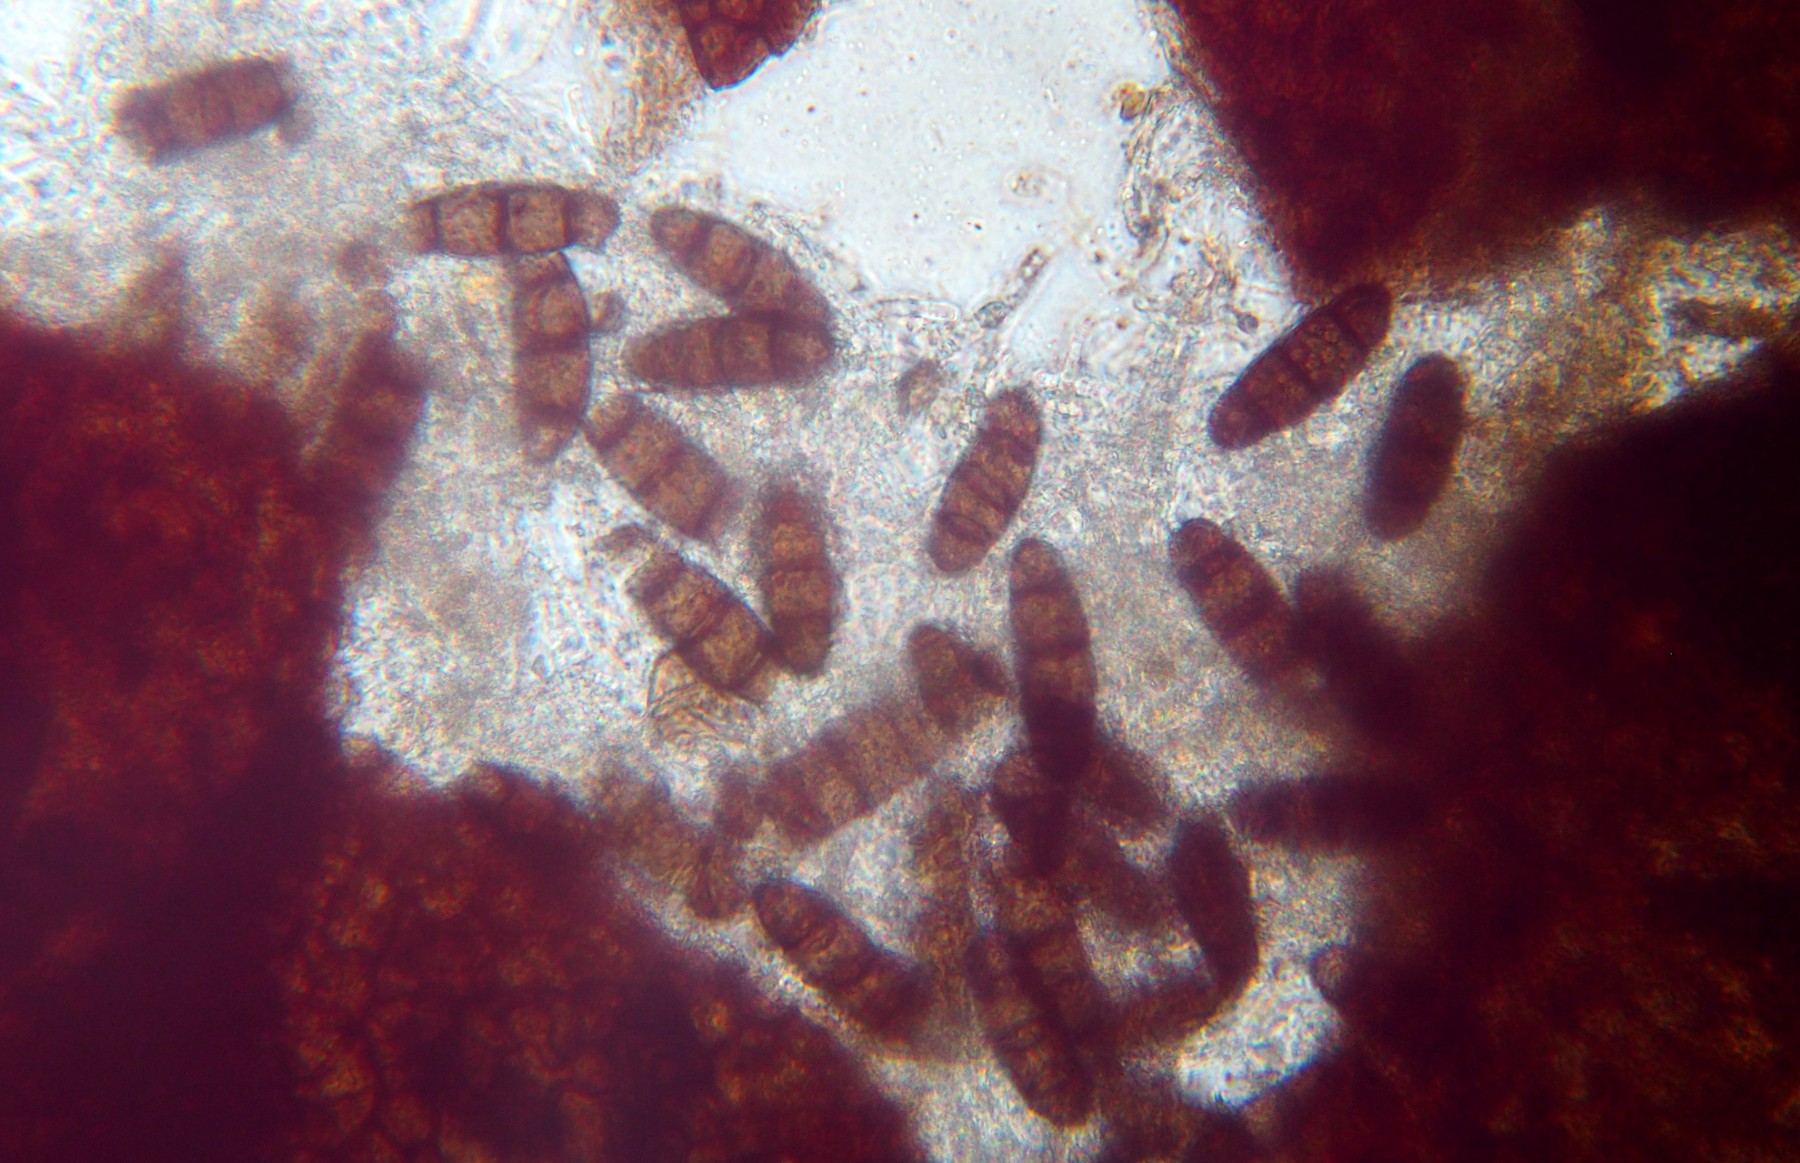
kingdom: Fungi
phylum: Ascomycota
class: Sordariomycetes
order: Diaporthales
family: Sydowiellaceae
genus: Hapalocystis
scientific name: Hapalocystis bicaudata
